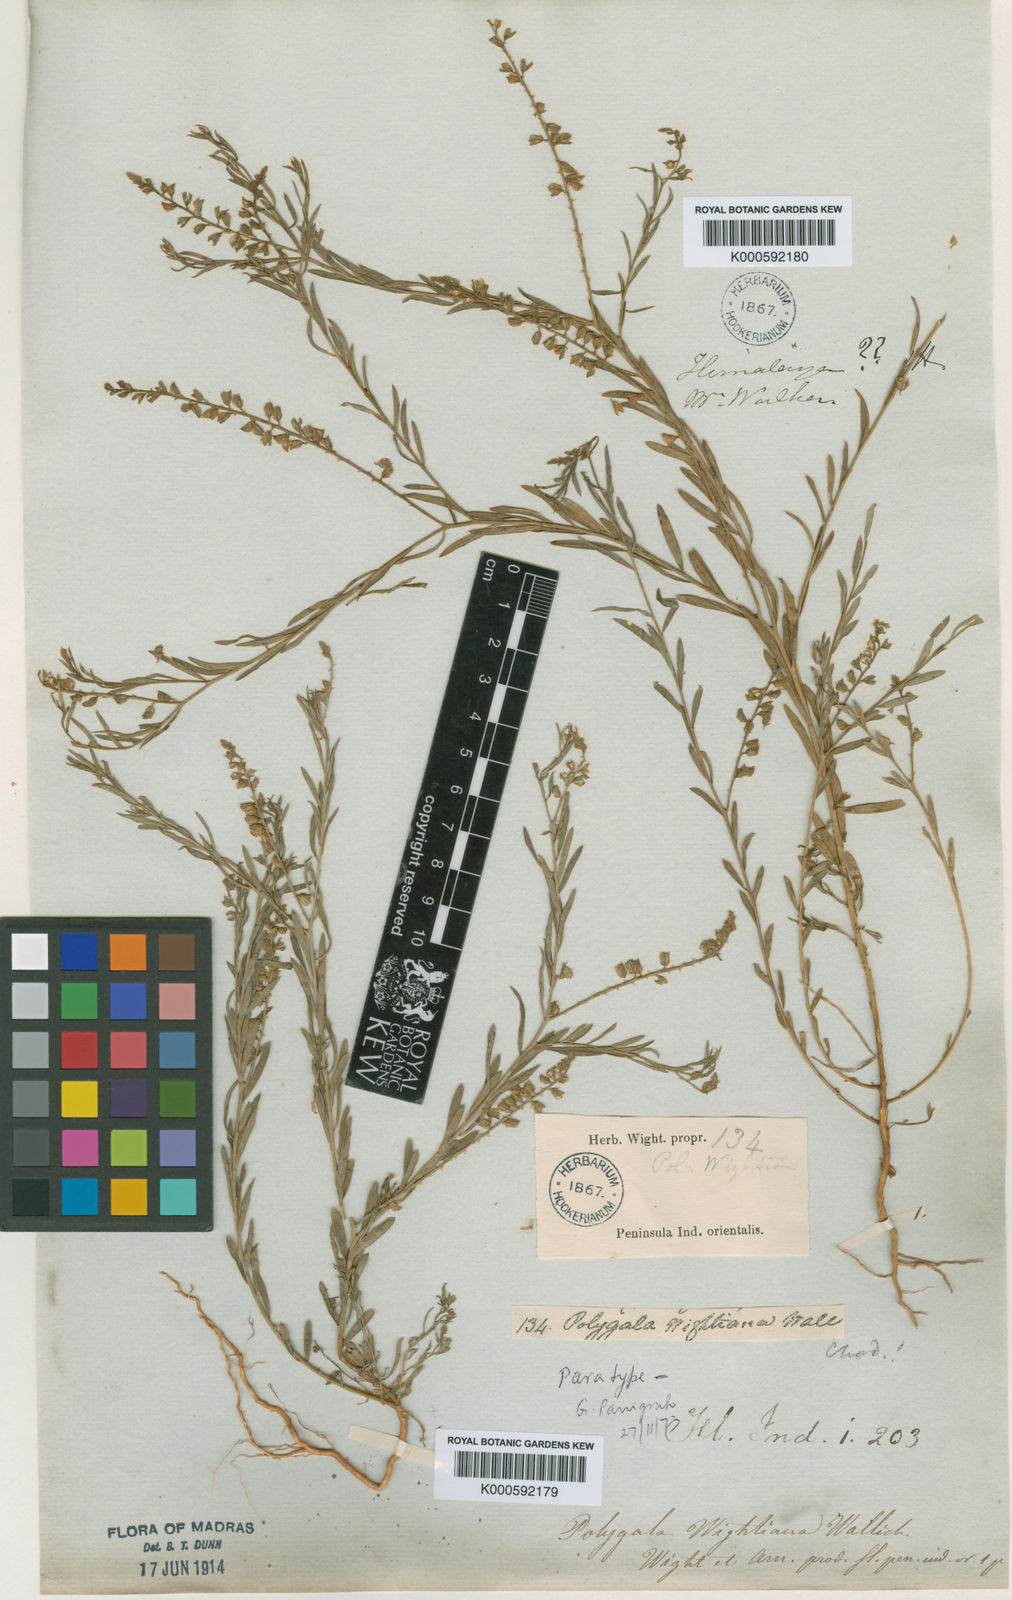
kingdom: Plantae
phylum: Tracheophyta
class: Magnoliopsida
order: Fabales
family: Polygalaceae
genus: Polygala
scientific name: Polygala wightiana
